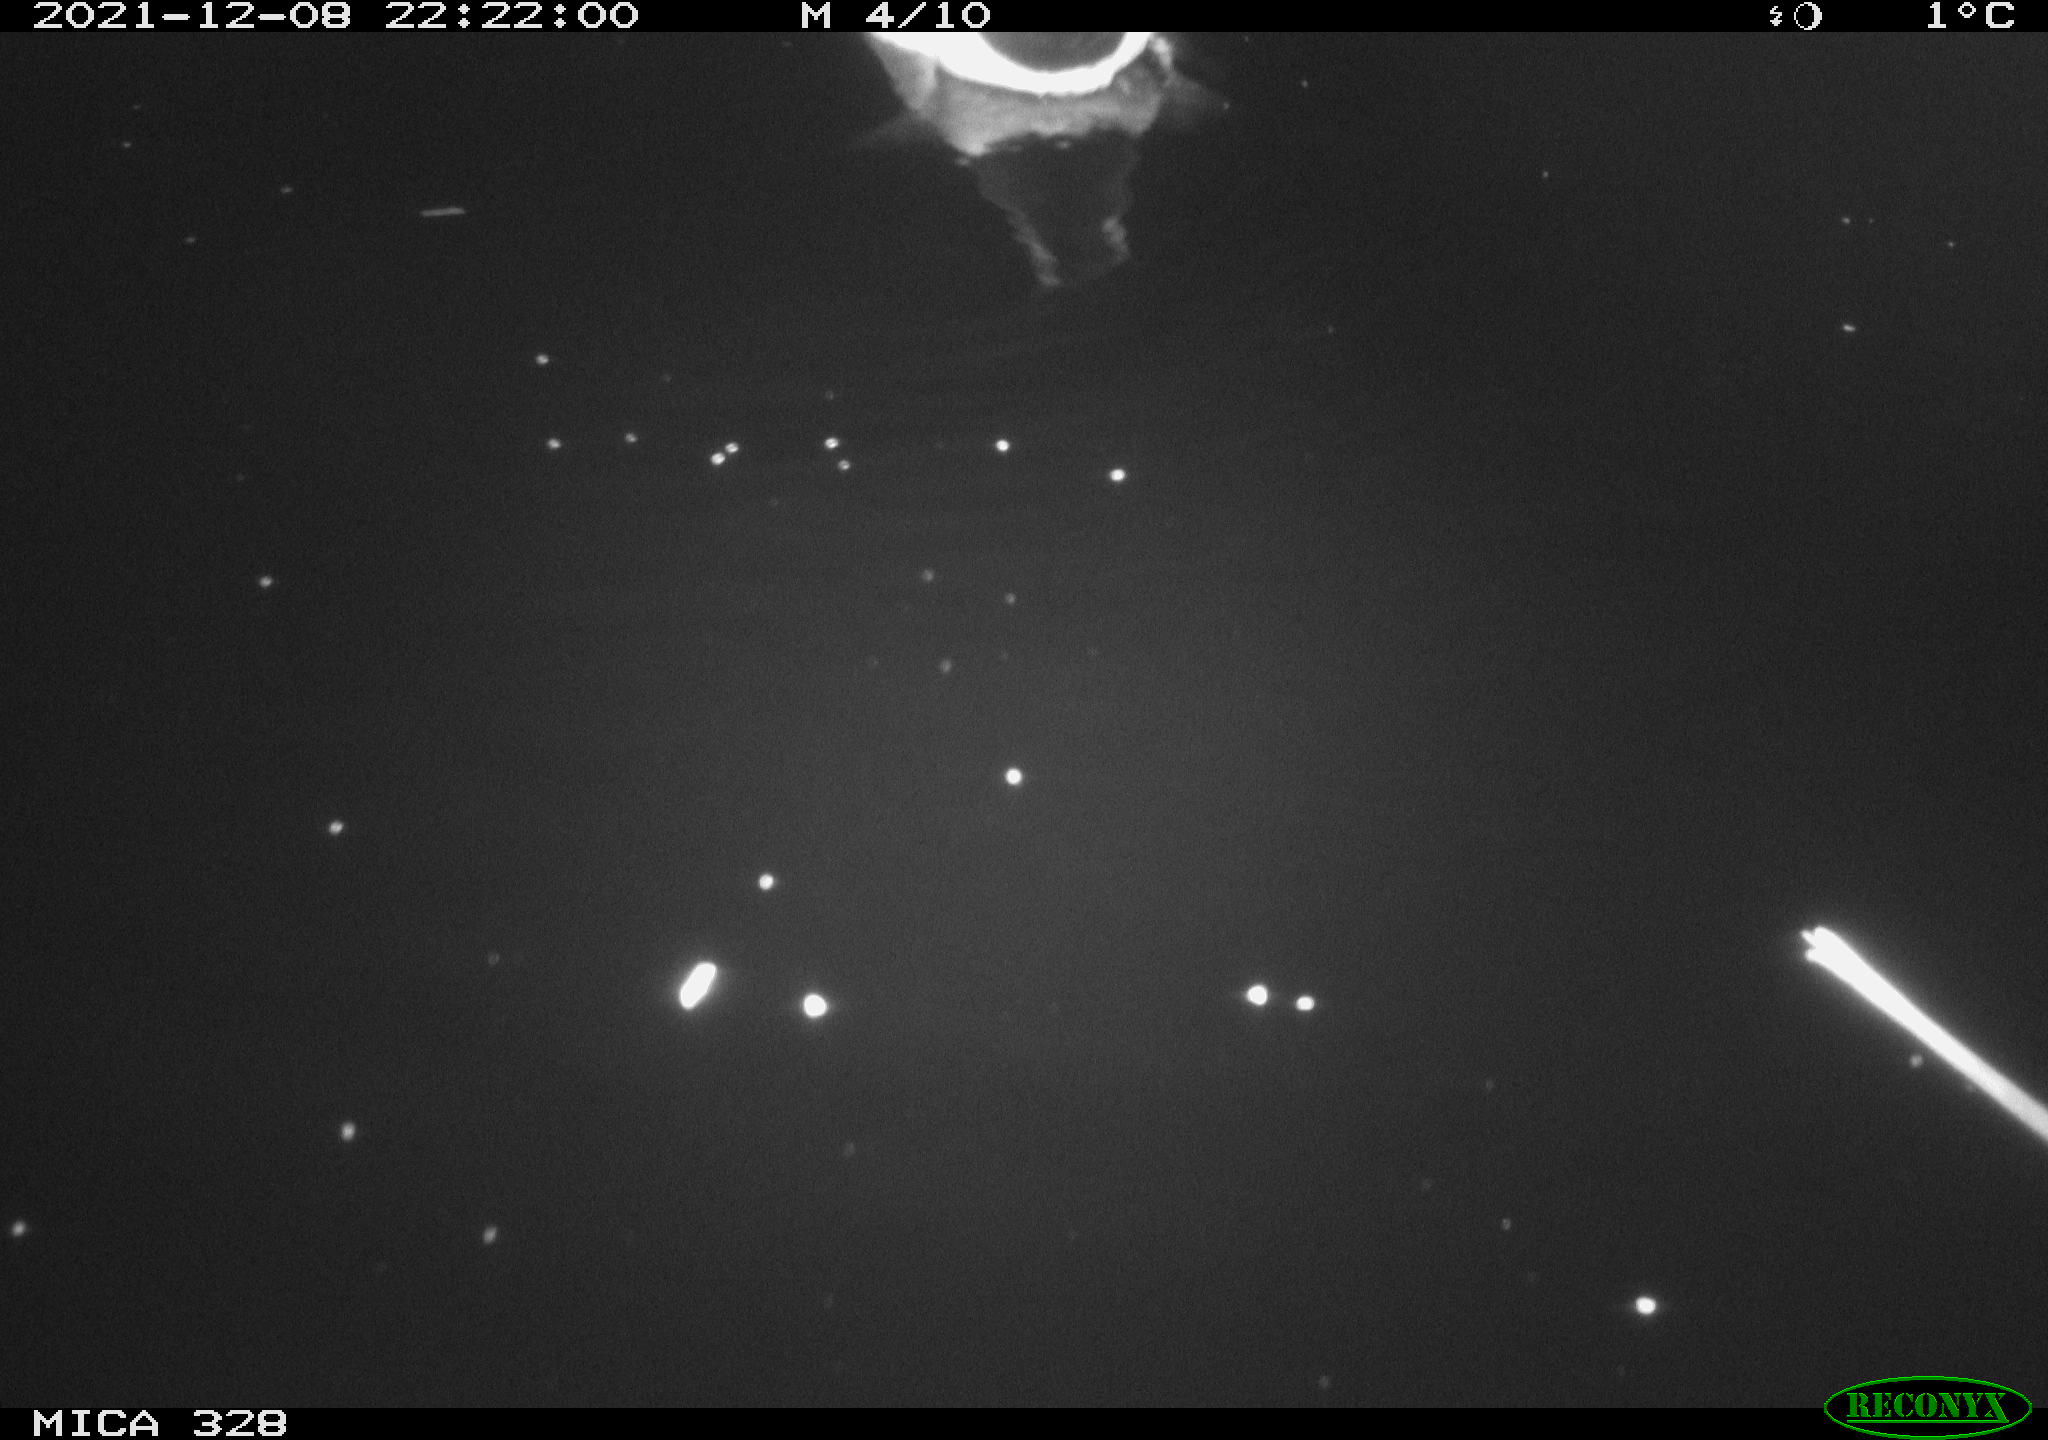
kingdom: Animalia
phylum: Chordata
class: Aves
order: Anseriformes
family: Anatidae
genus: Anas
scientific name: Anas platyrhynchos
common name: Mallard
